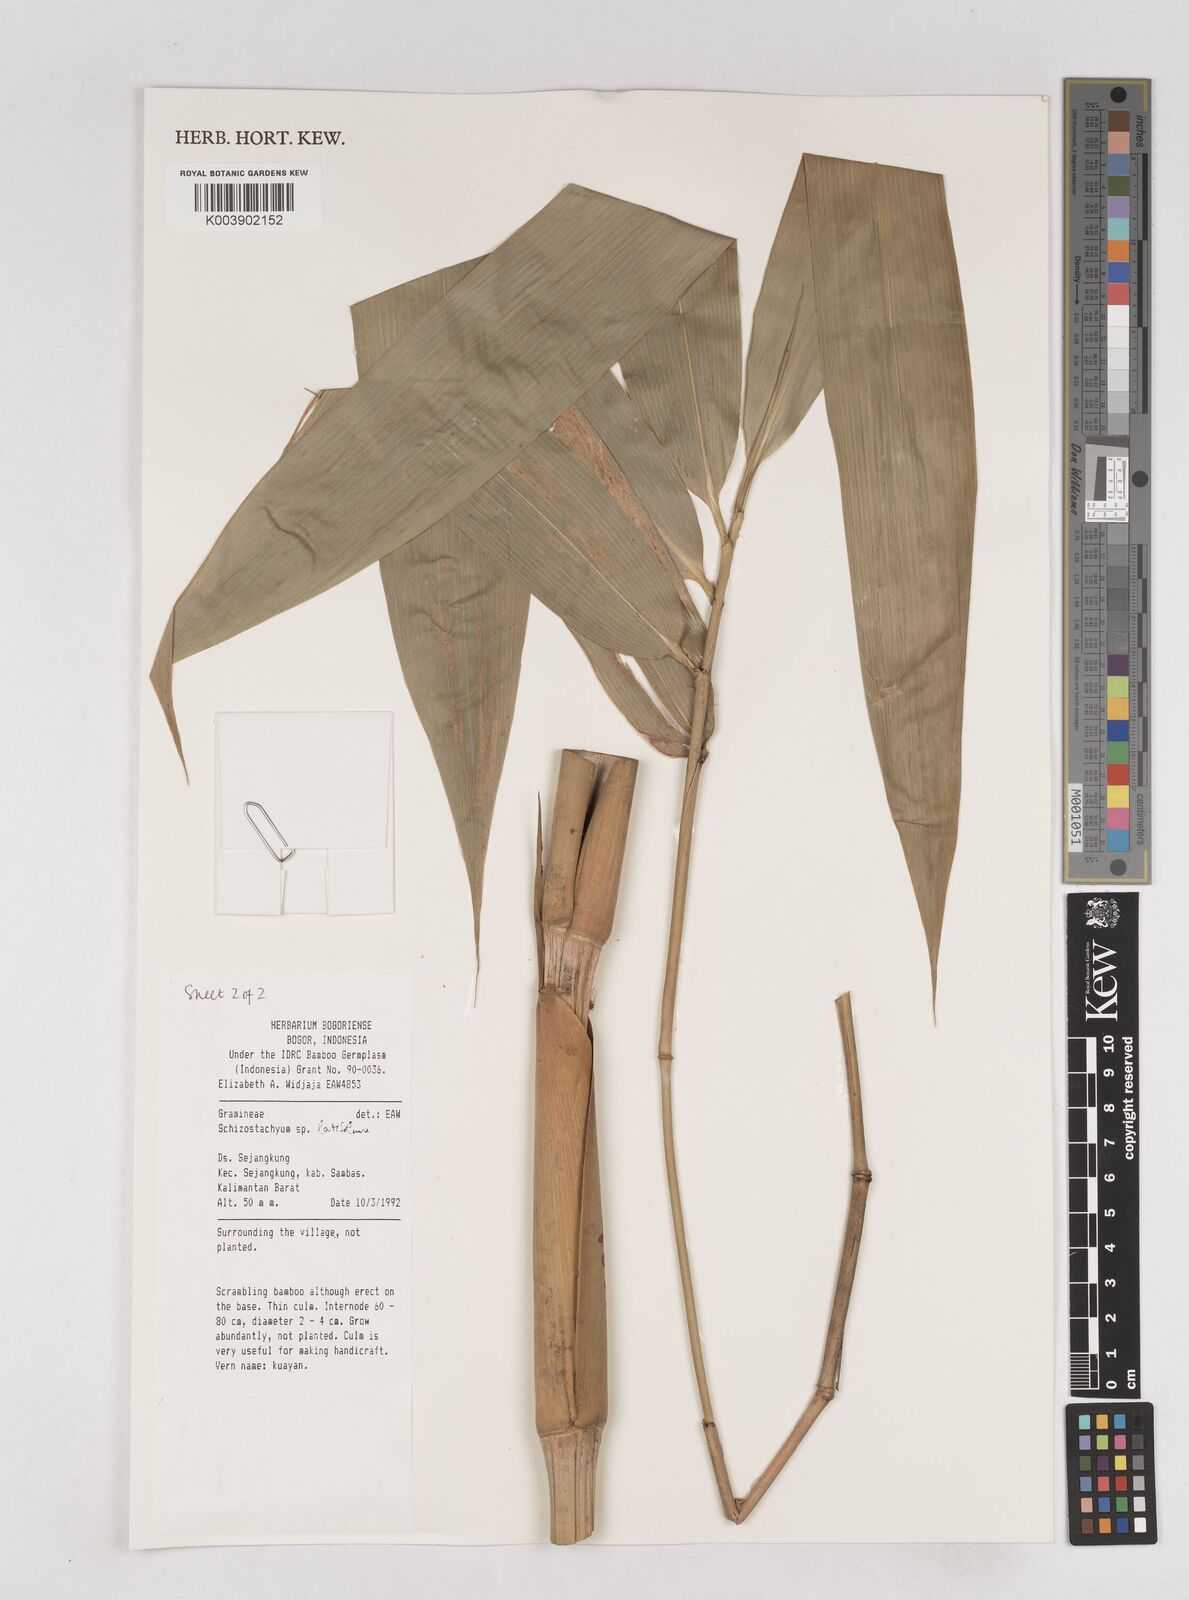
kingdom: Plantae
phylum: Tracheophyta
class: Liliopsida
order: Poales
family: Poaceae
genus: Schizostachyum
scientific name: Schizostachyum
